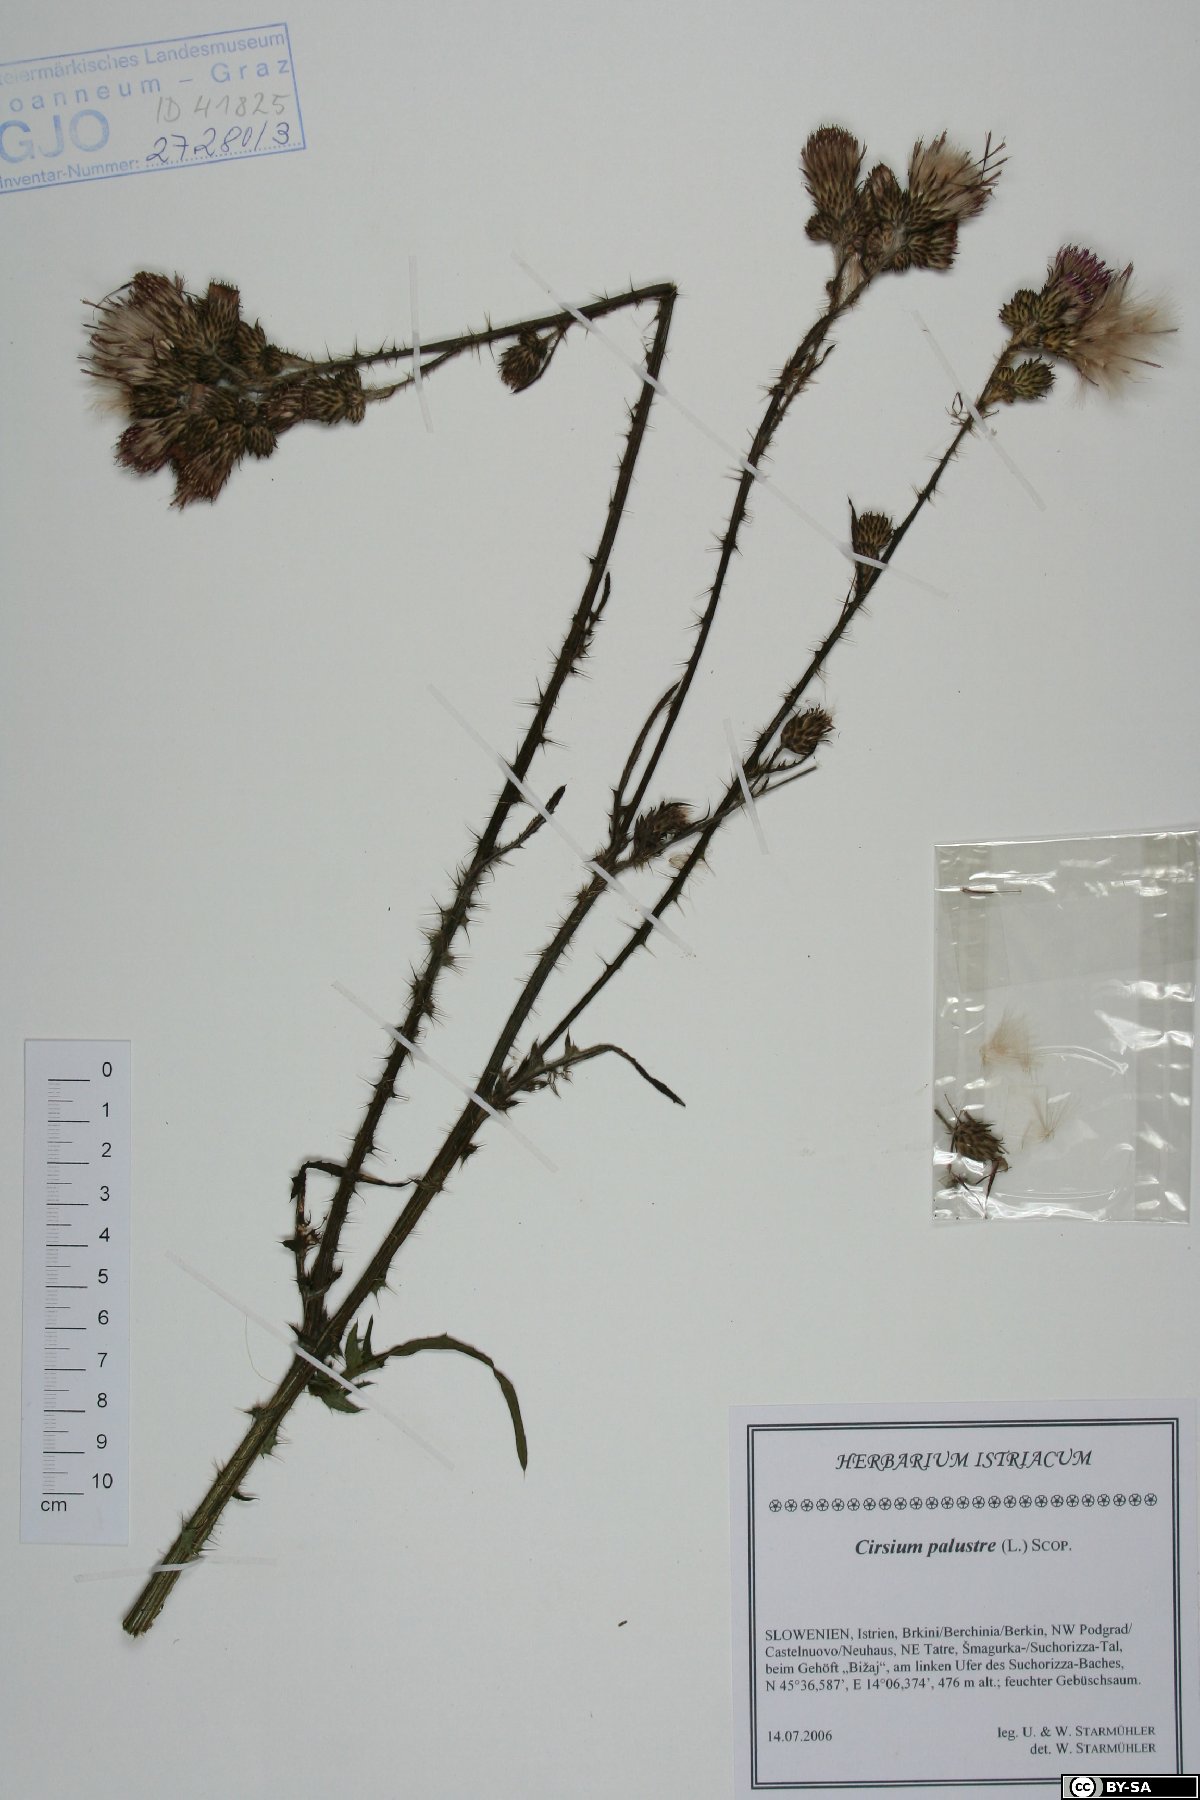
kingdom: Plantae
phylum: Tracheophyta
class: Magnoliopsida
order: Asterales
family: Asteraceae
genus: Cirsium
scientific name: Cirsium palustre
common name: Marsh thistle
